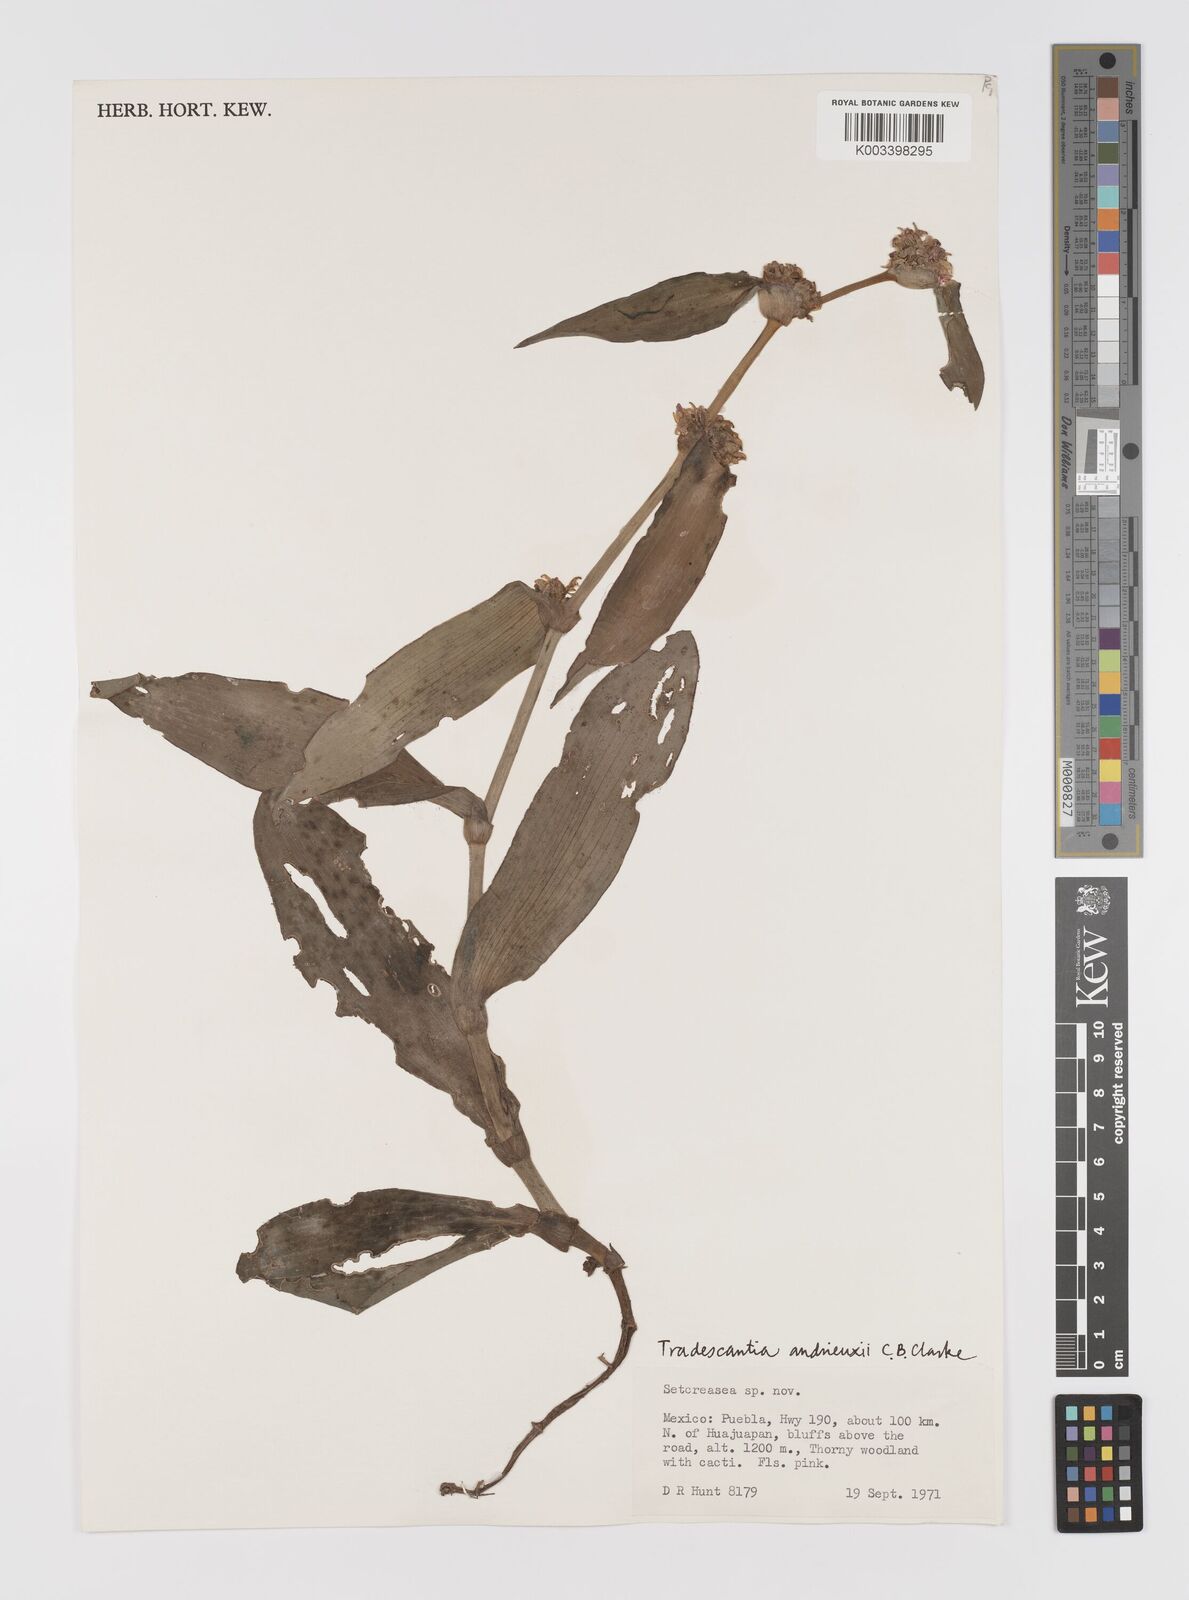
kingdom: Plantae
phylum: Tracheophyta
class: Liliopsida
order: Commelinales
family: Commelinaceae
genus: Tradescantia
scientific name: Tradescantia andrieuxii
